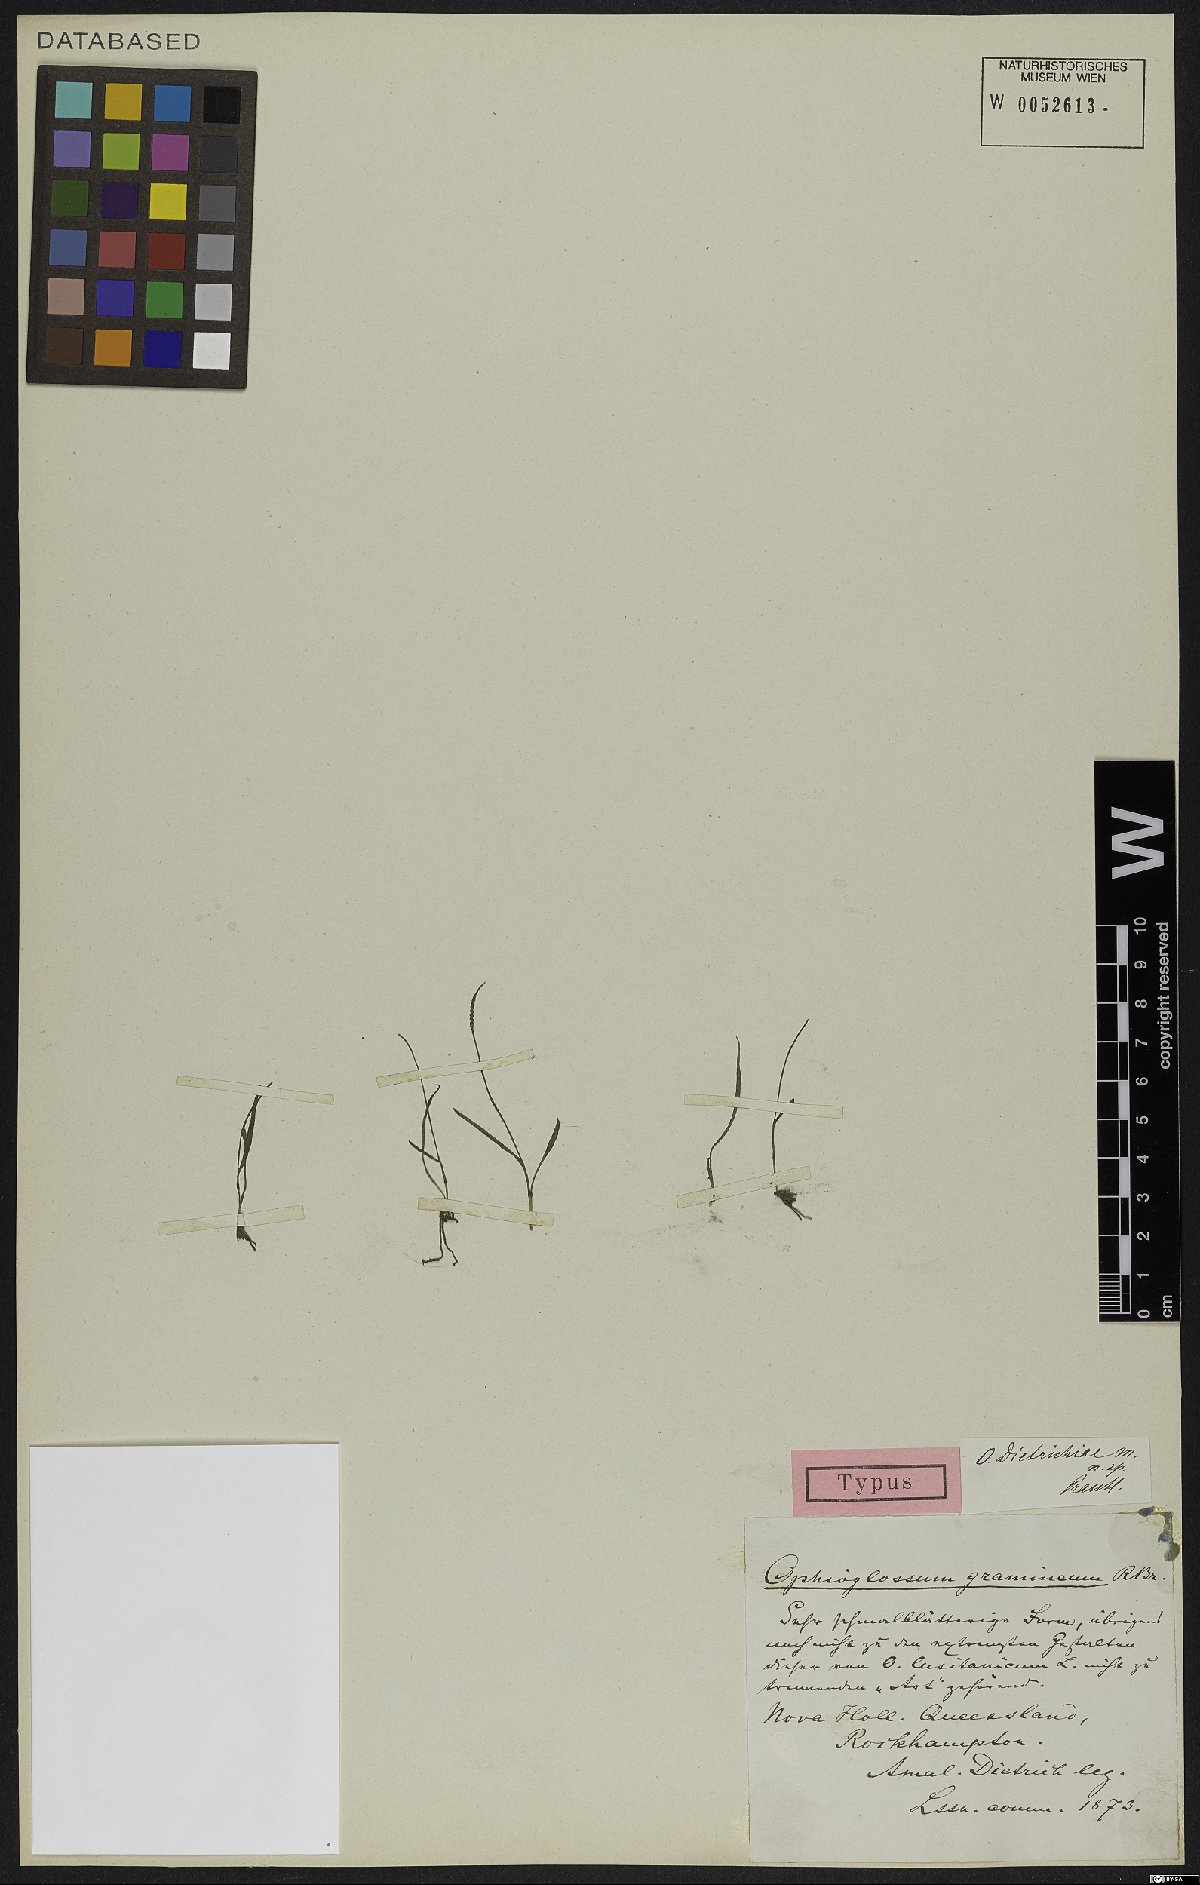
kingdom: Plantae
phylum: Tracheophyta
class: Polypodiopsida
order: Ophioglossales
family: Ophioglossaceae
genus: Ophioglossum
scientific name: Ophioglossum gramineum
